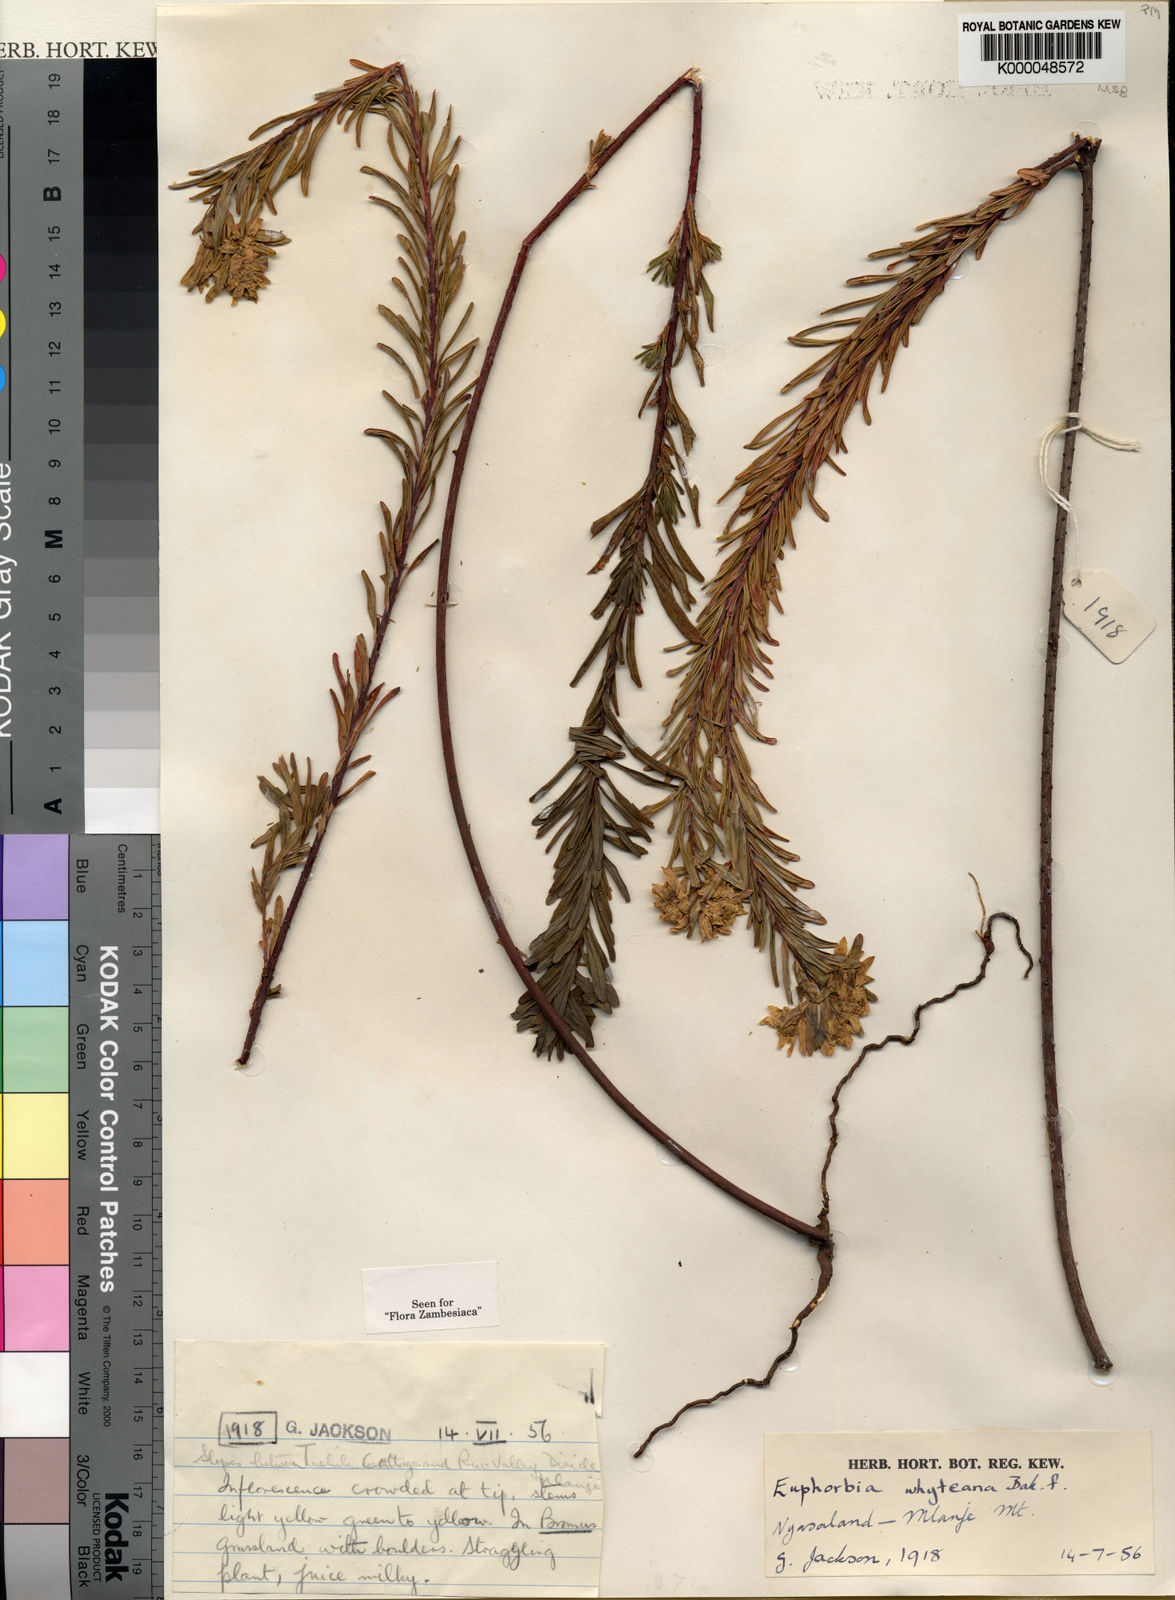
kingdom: Plantae
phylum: Tracheophyta
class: Magnoliopsida
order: Malpighiales
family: Euphorbiaceae
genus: Euphorbia
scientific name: Euphorbia whyteana
